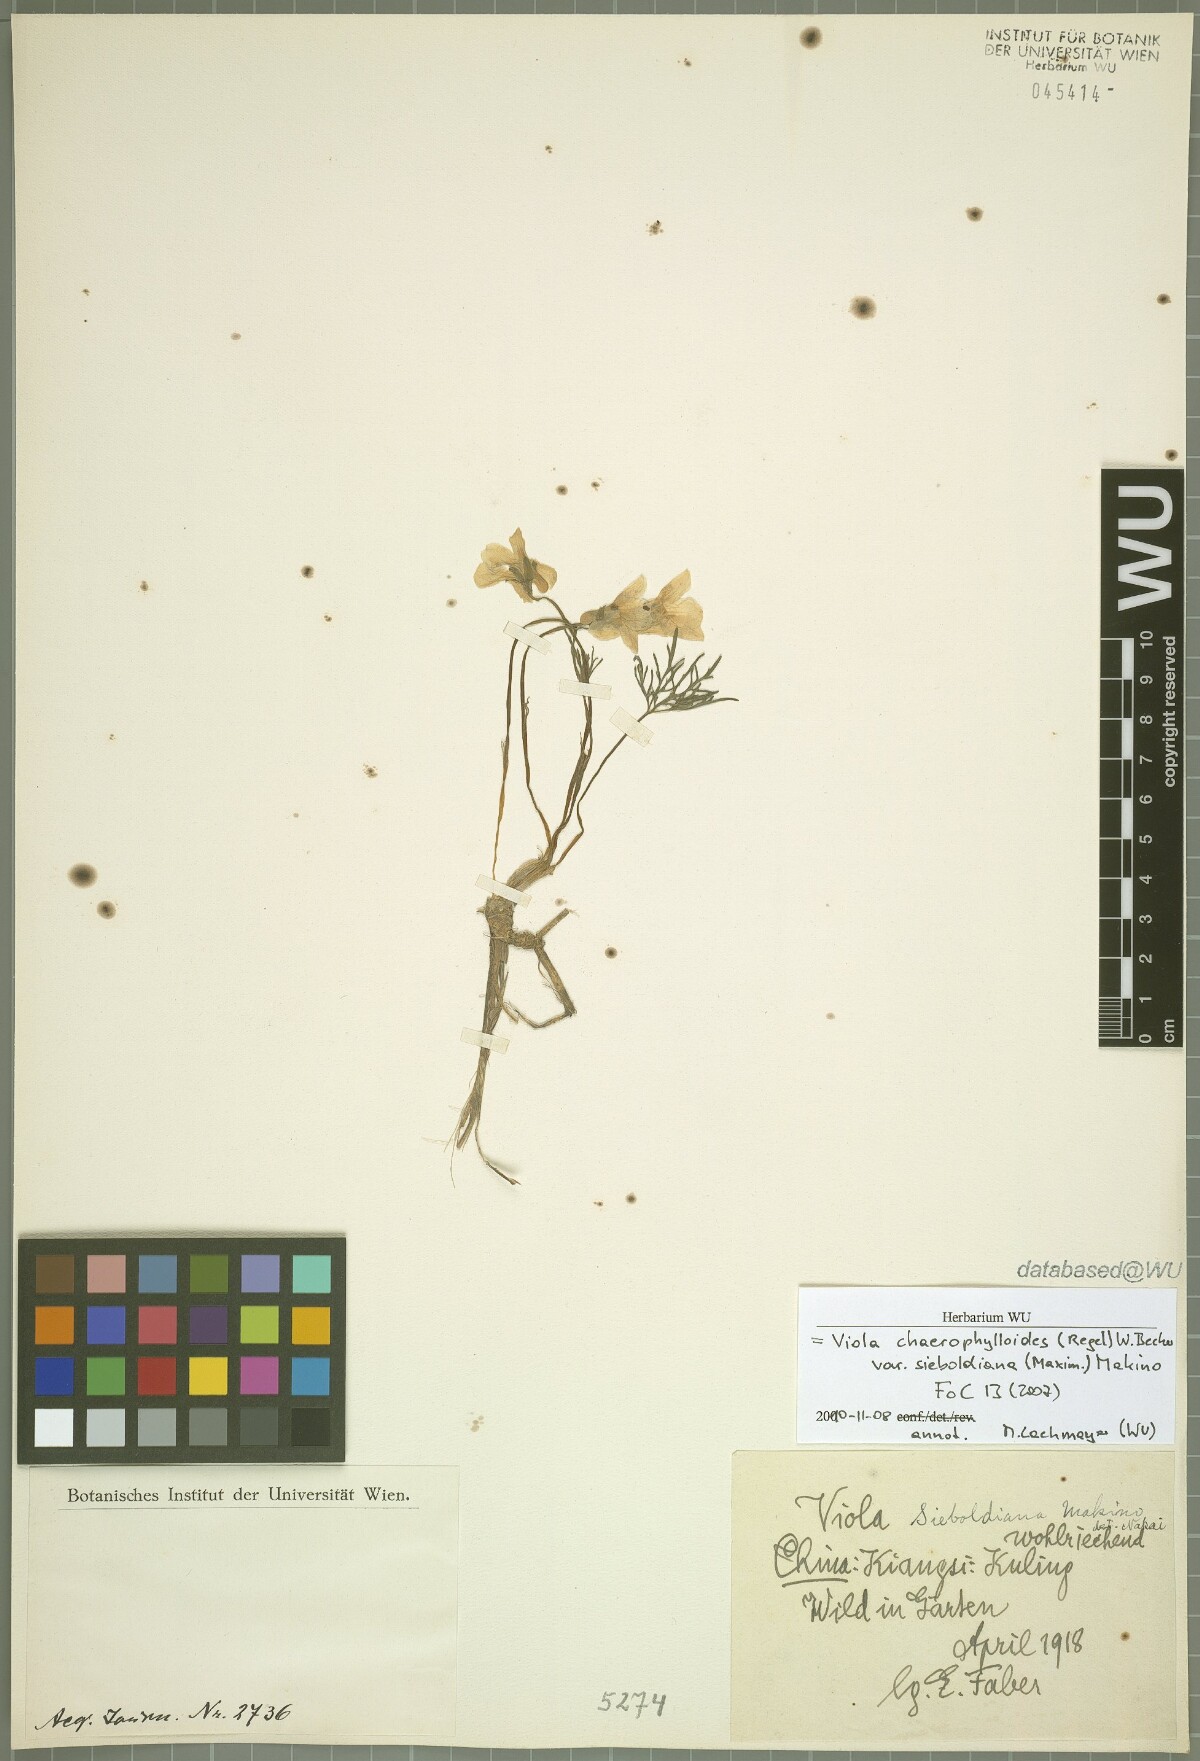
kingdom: Plantae
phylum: Tracheophyta
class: Magnoliopsida
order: Malpighiales
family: Violaceae
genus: Viola
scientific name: Viola albida
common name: Korean violet
